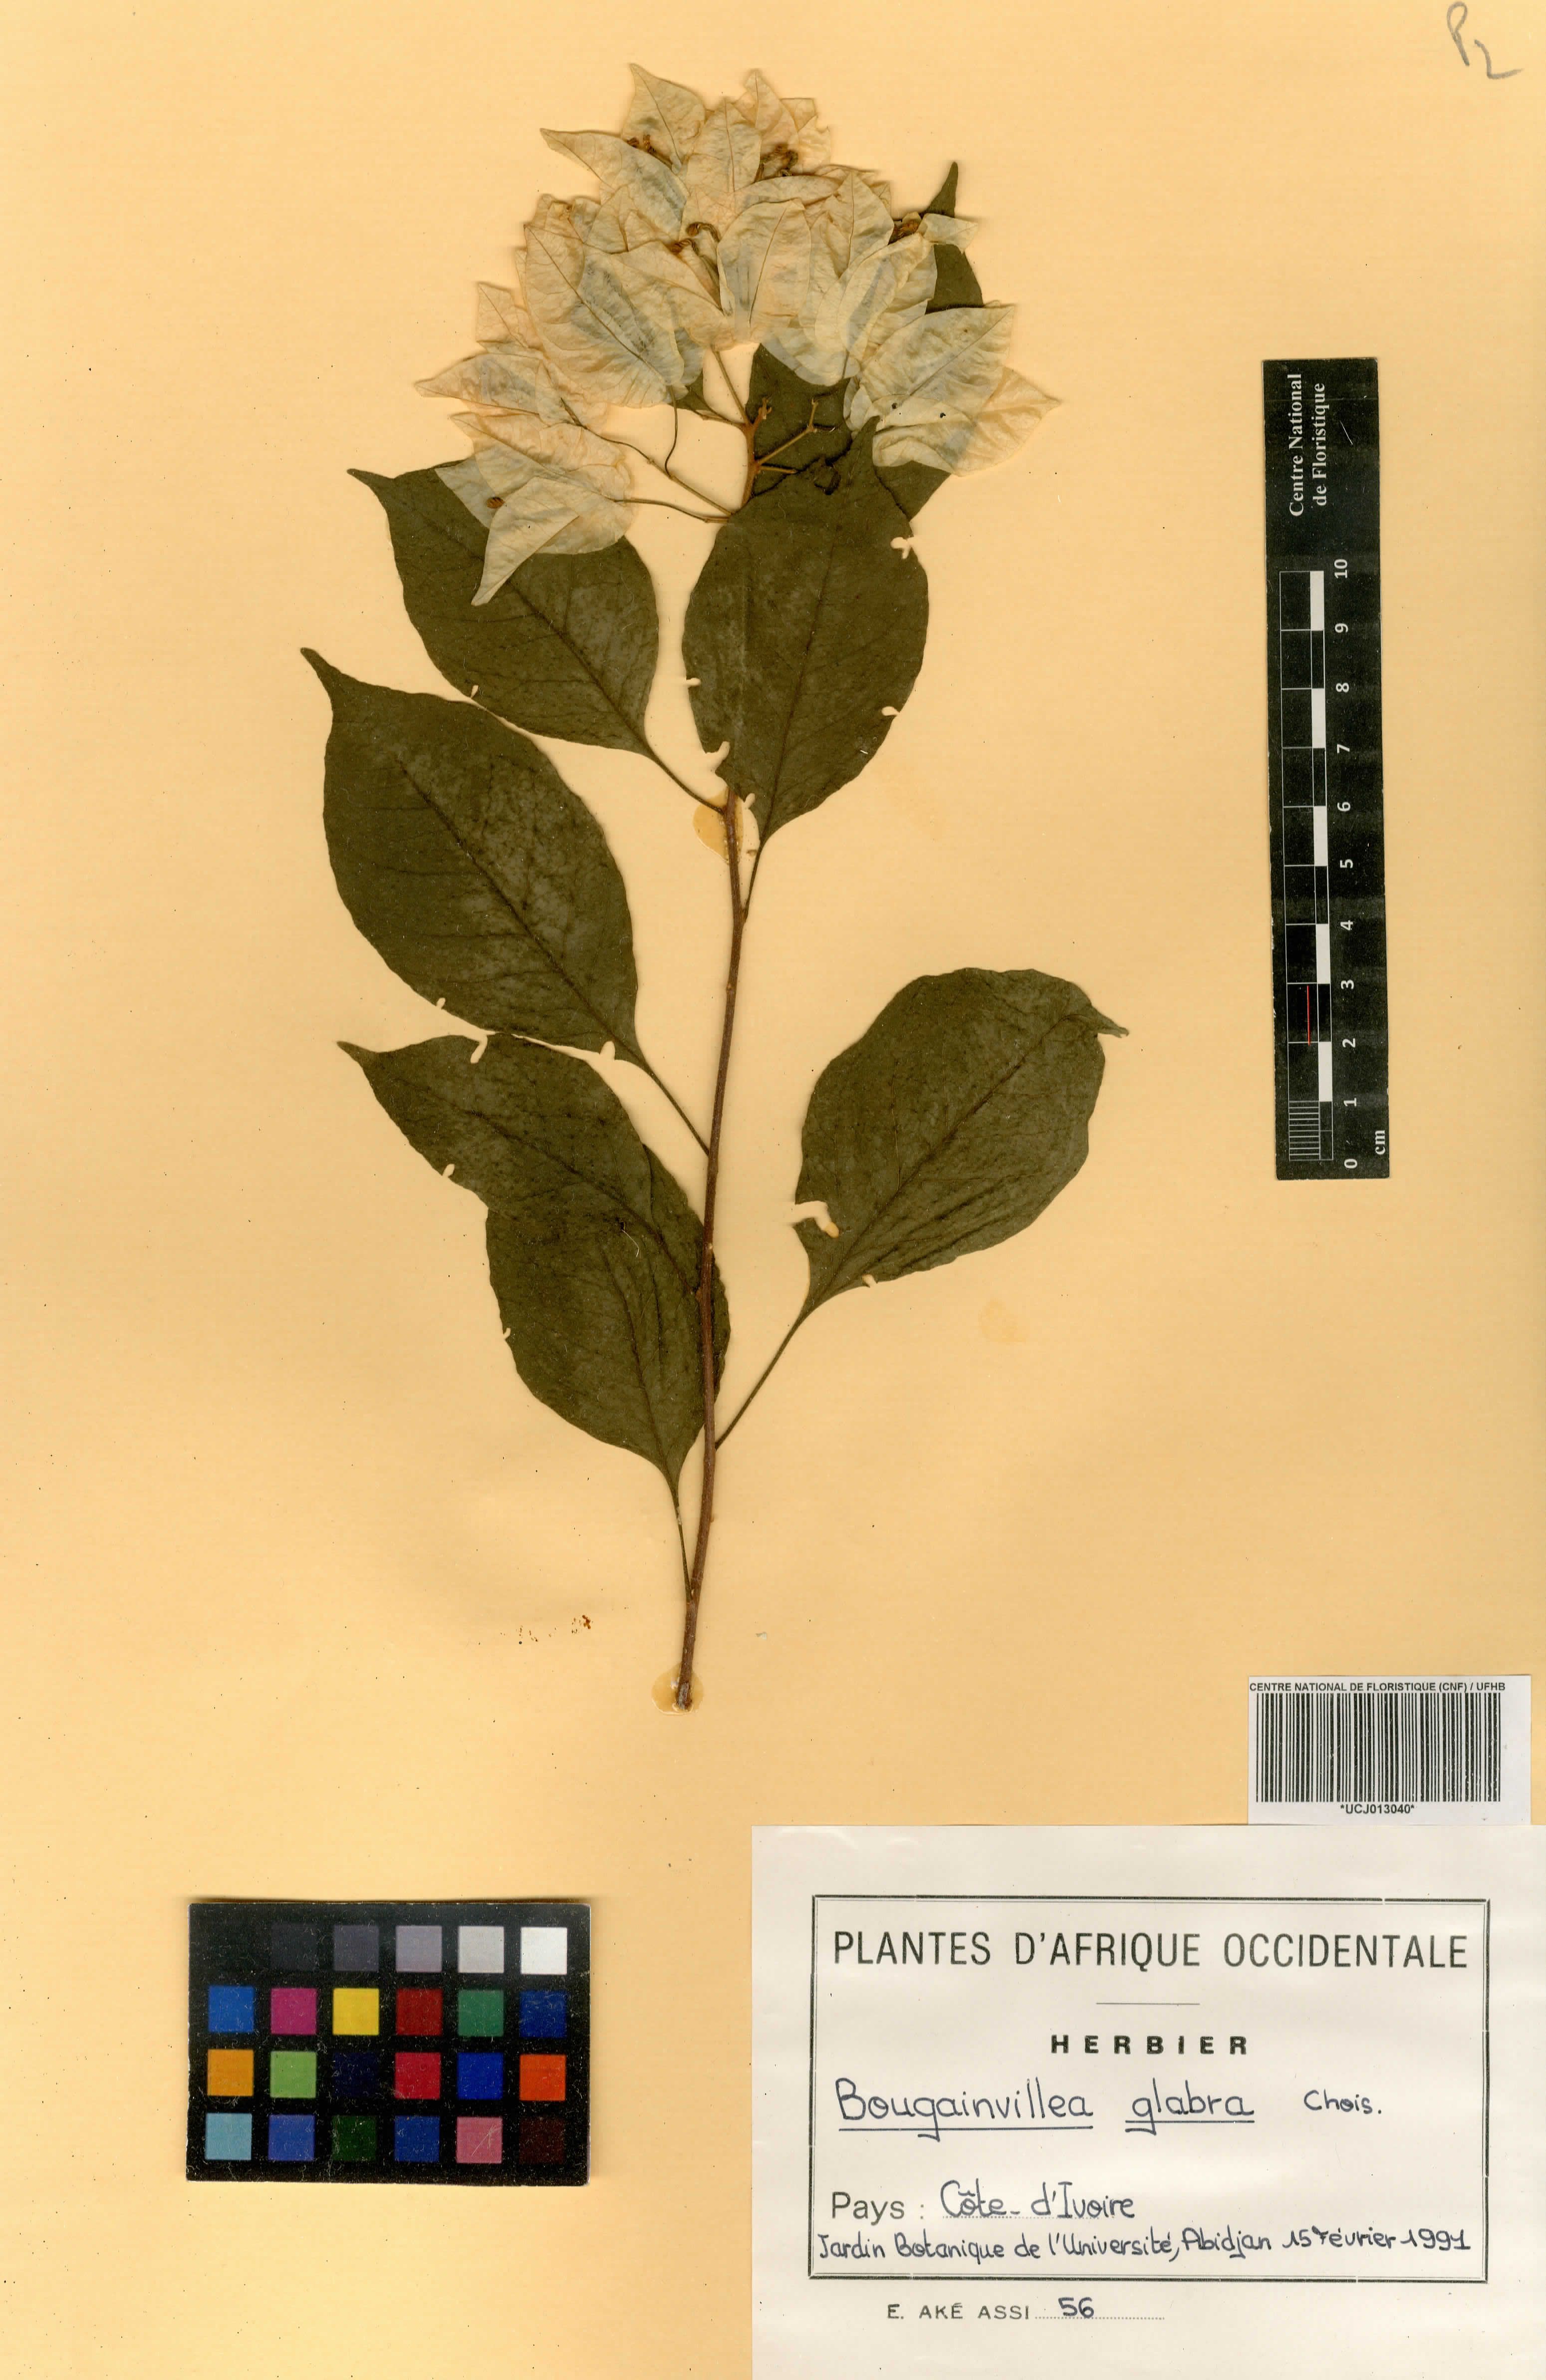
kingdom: Plantae
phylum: Tracheophyta
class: Magnoliopsida
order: Caryophyllales
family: Nyctaginaceae
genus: Bougainvillea
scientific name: Bougainvillea glabra
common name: Paperflower
